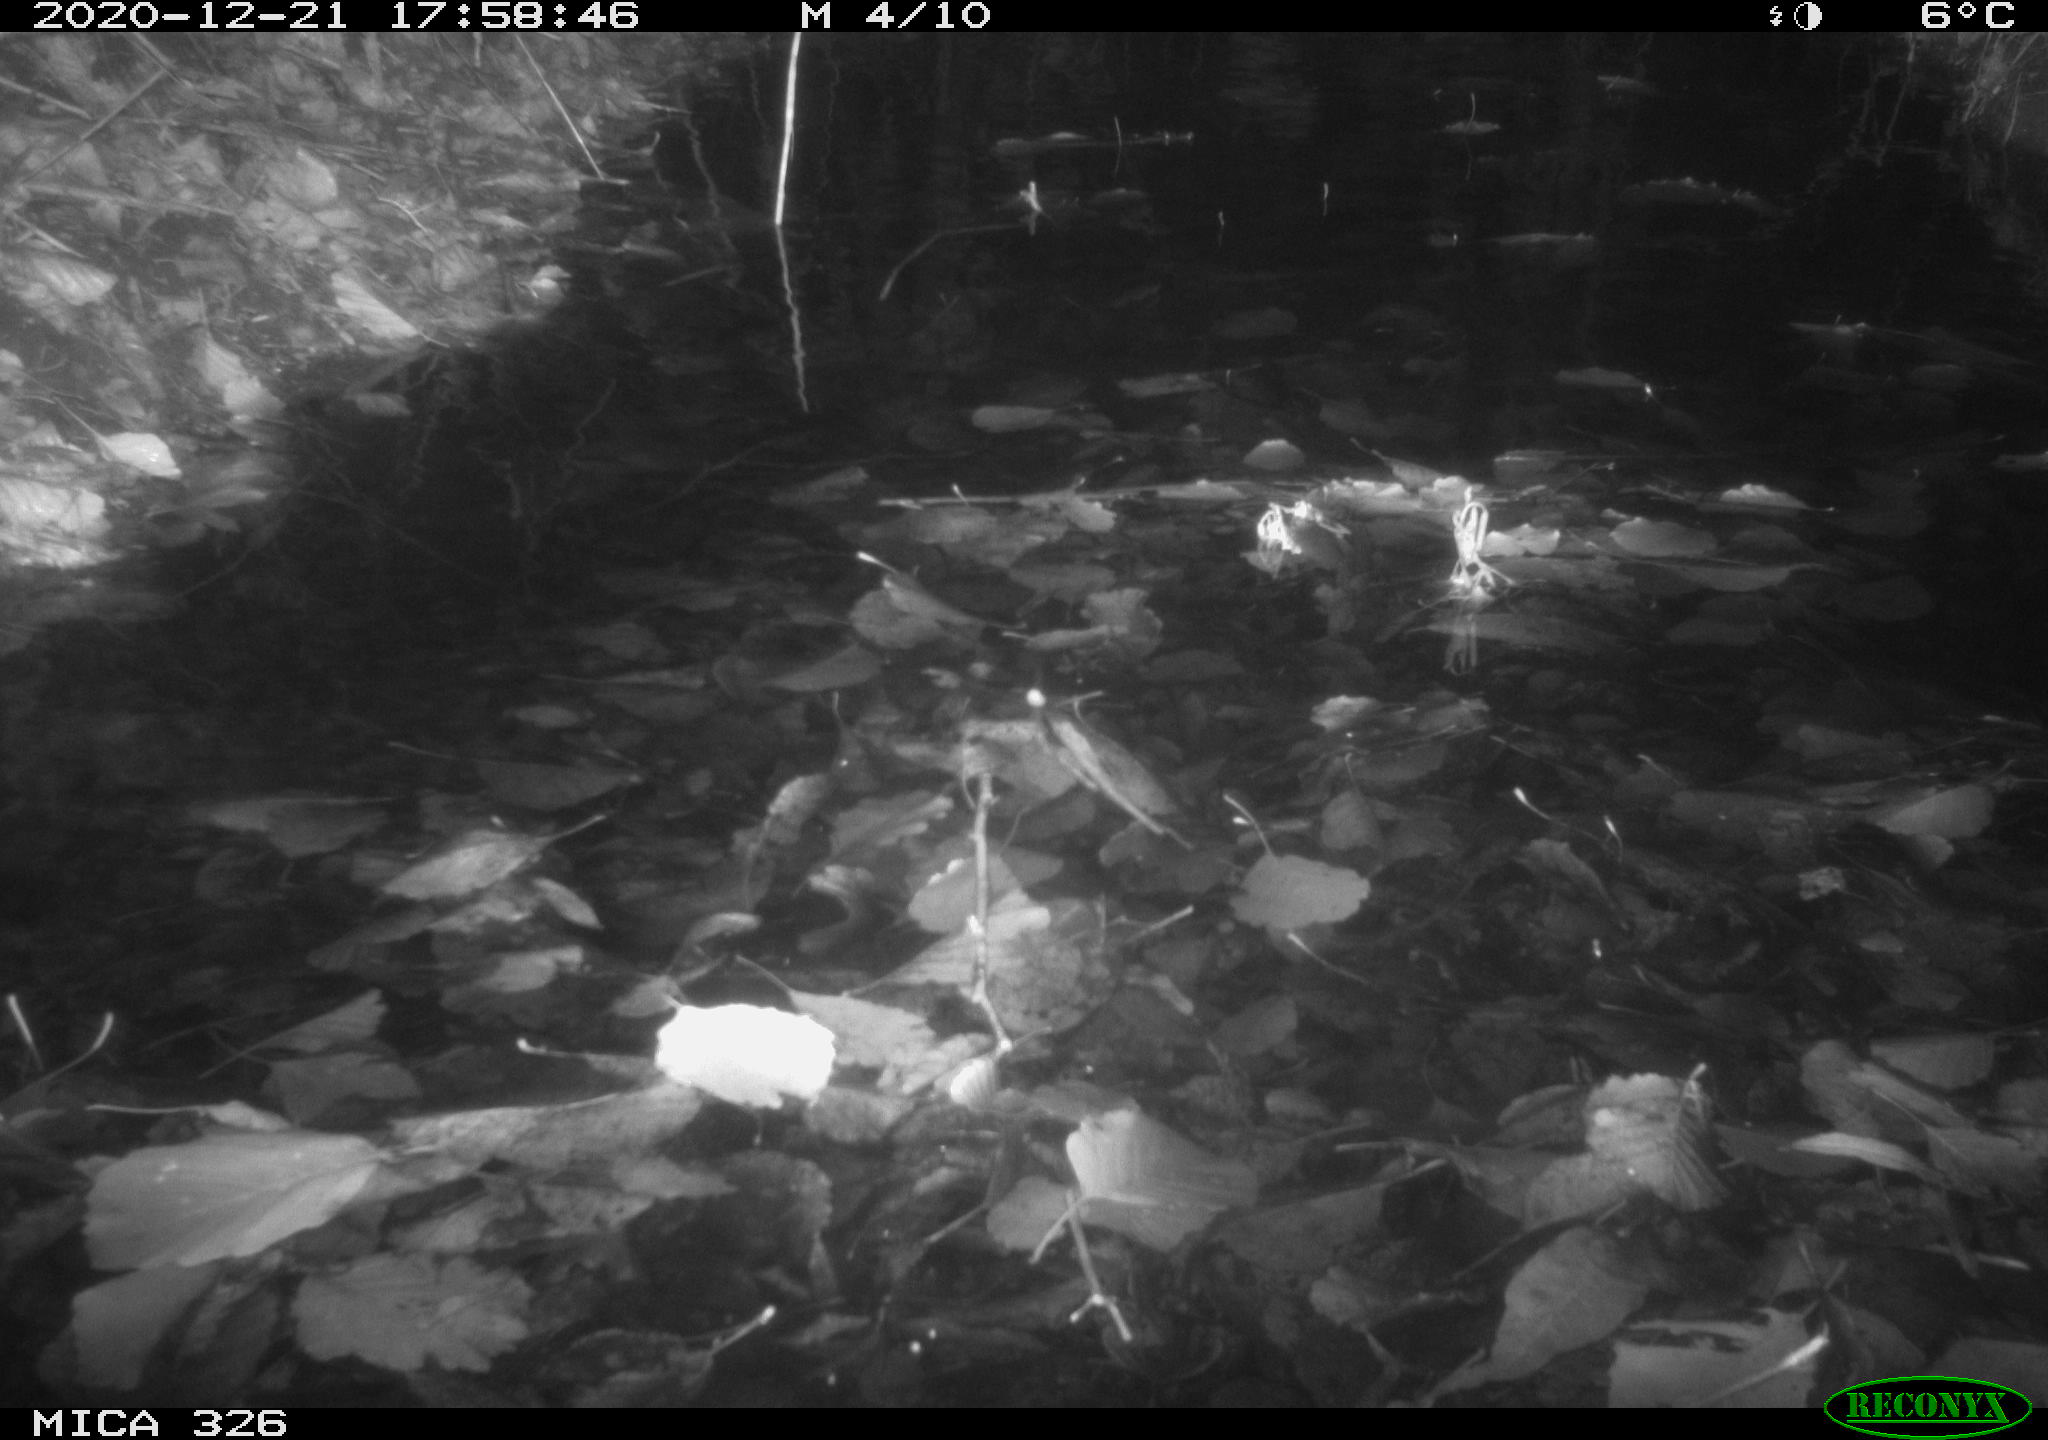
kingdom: Animalia
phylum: Chordata
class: Mammalia
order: Rodentia
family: Cricetidae
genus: Ondatra
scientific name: Ondatra zibethicus
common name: Muskrat
